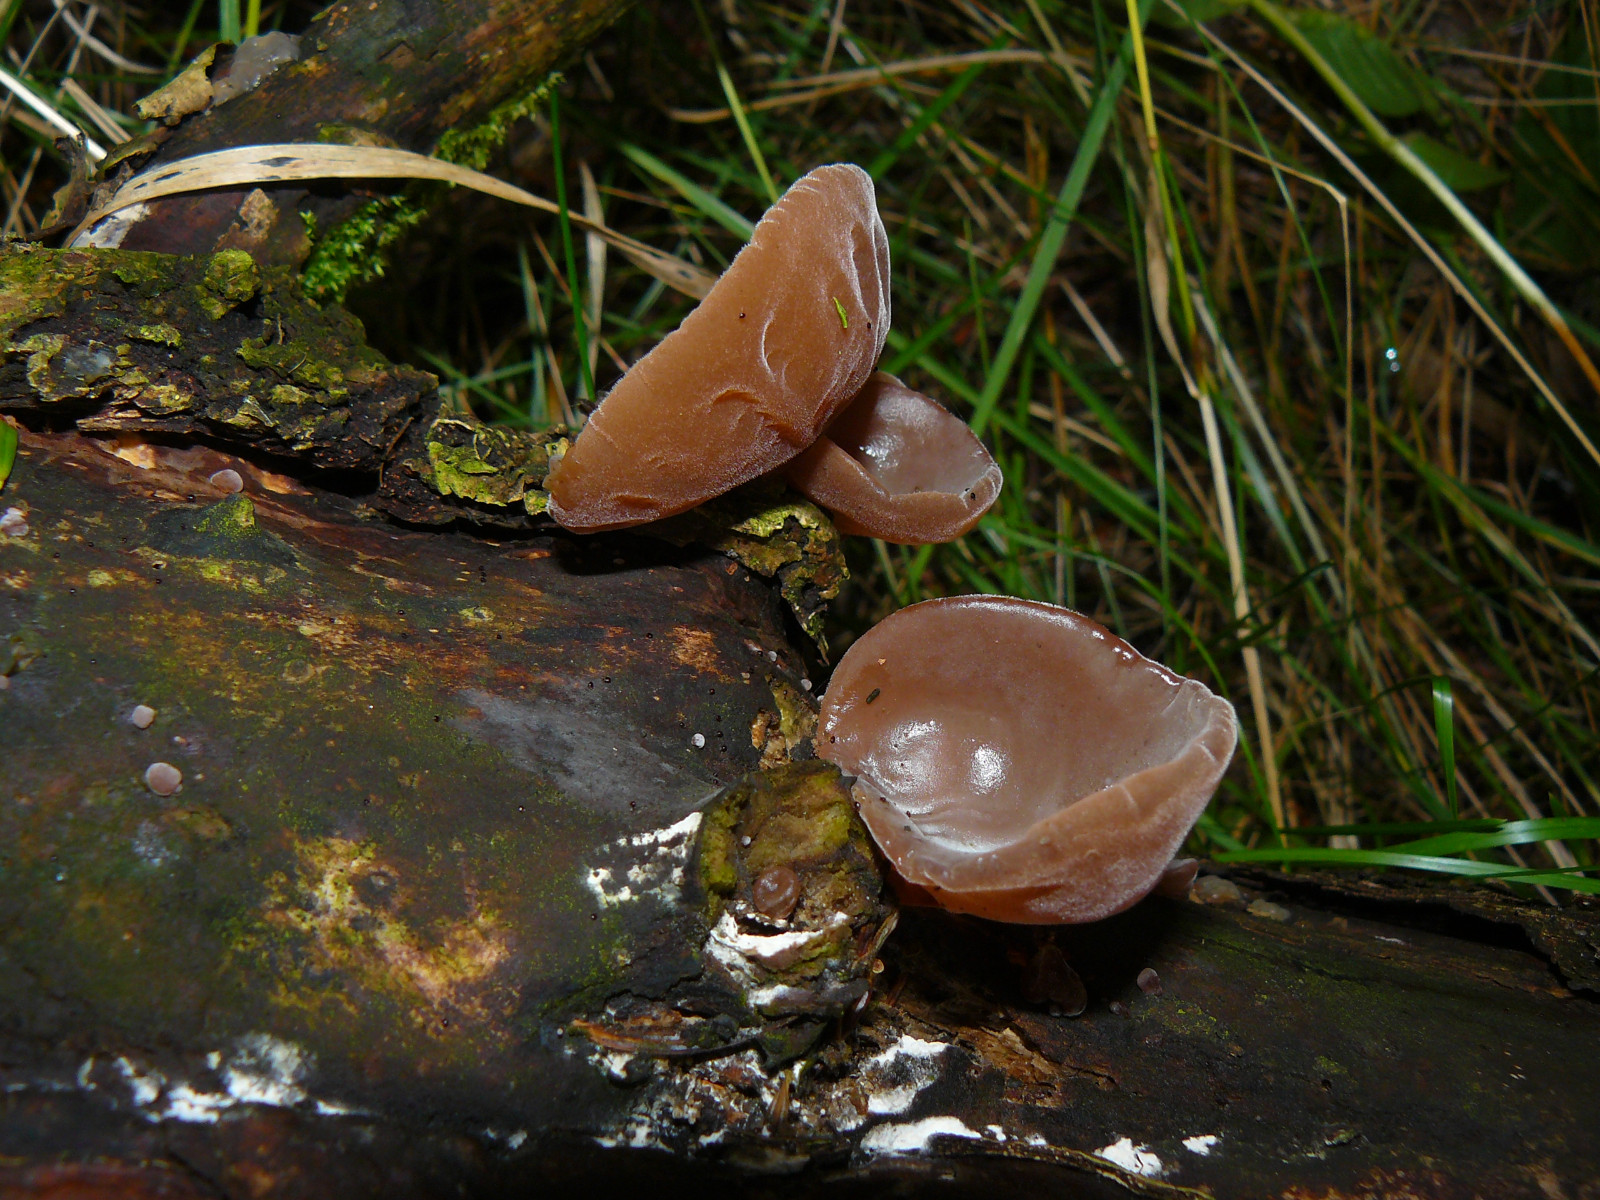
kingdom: Fungi
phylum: Basidiomycota
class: Agaricomycetes
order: Auriculariales
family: Auriculariaceae
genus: Auricularia
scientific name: Auricularia auricula-judae
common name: almindelig judasøre
